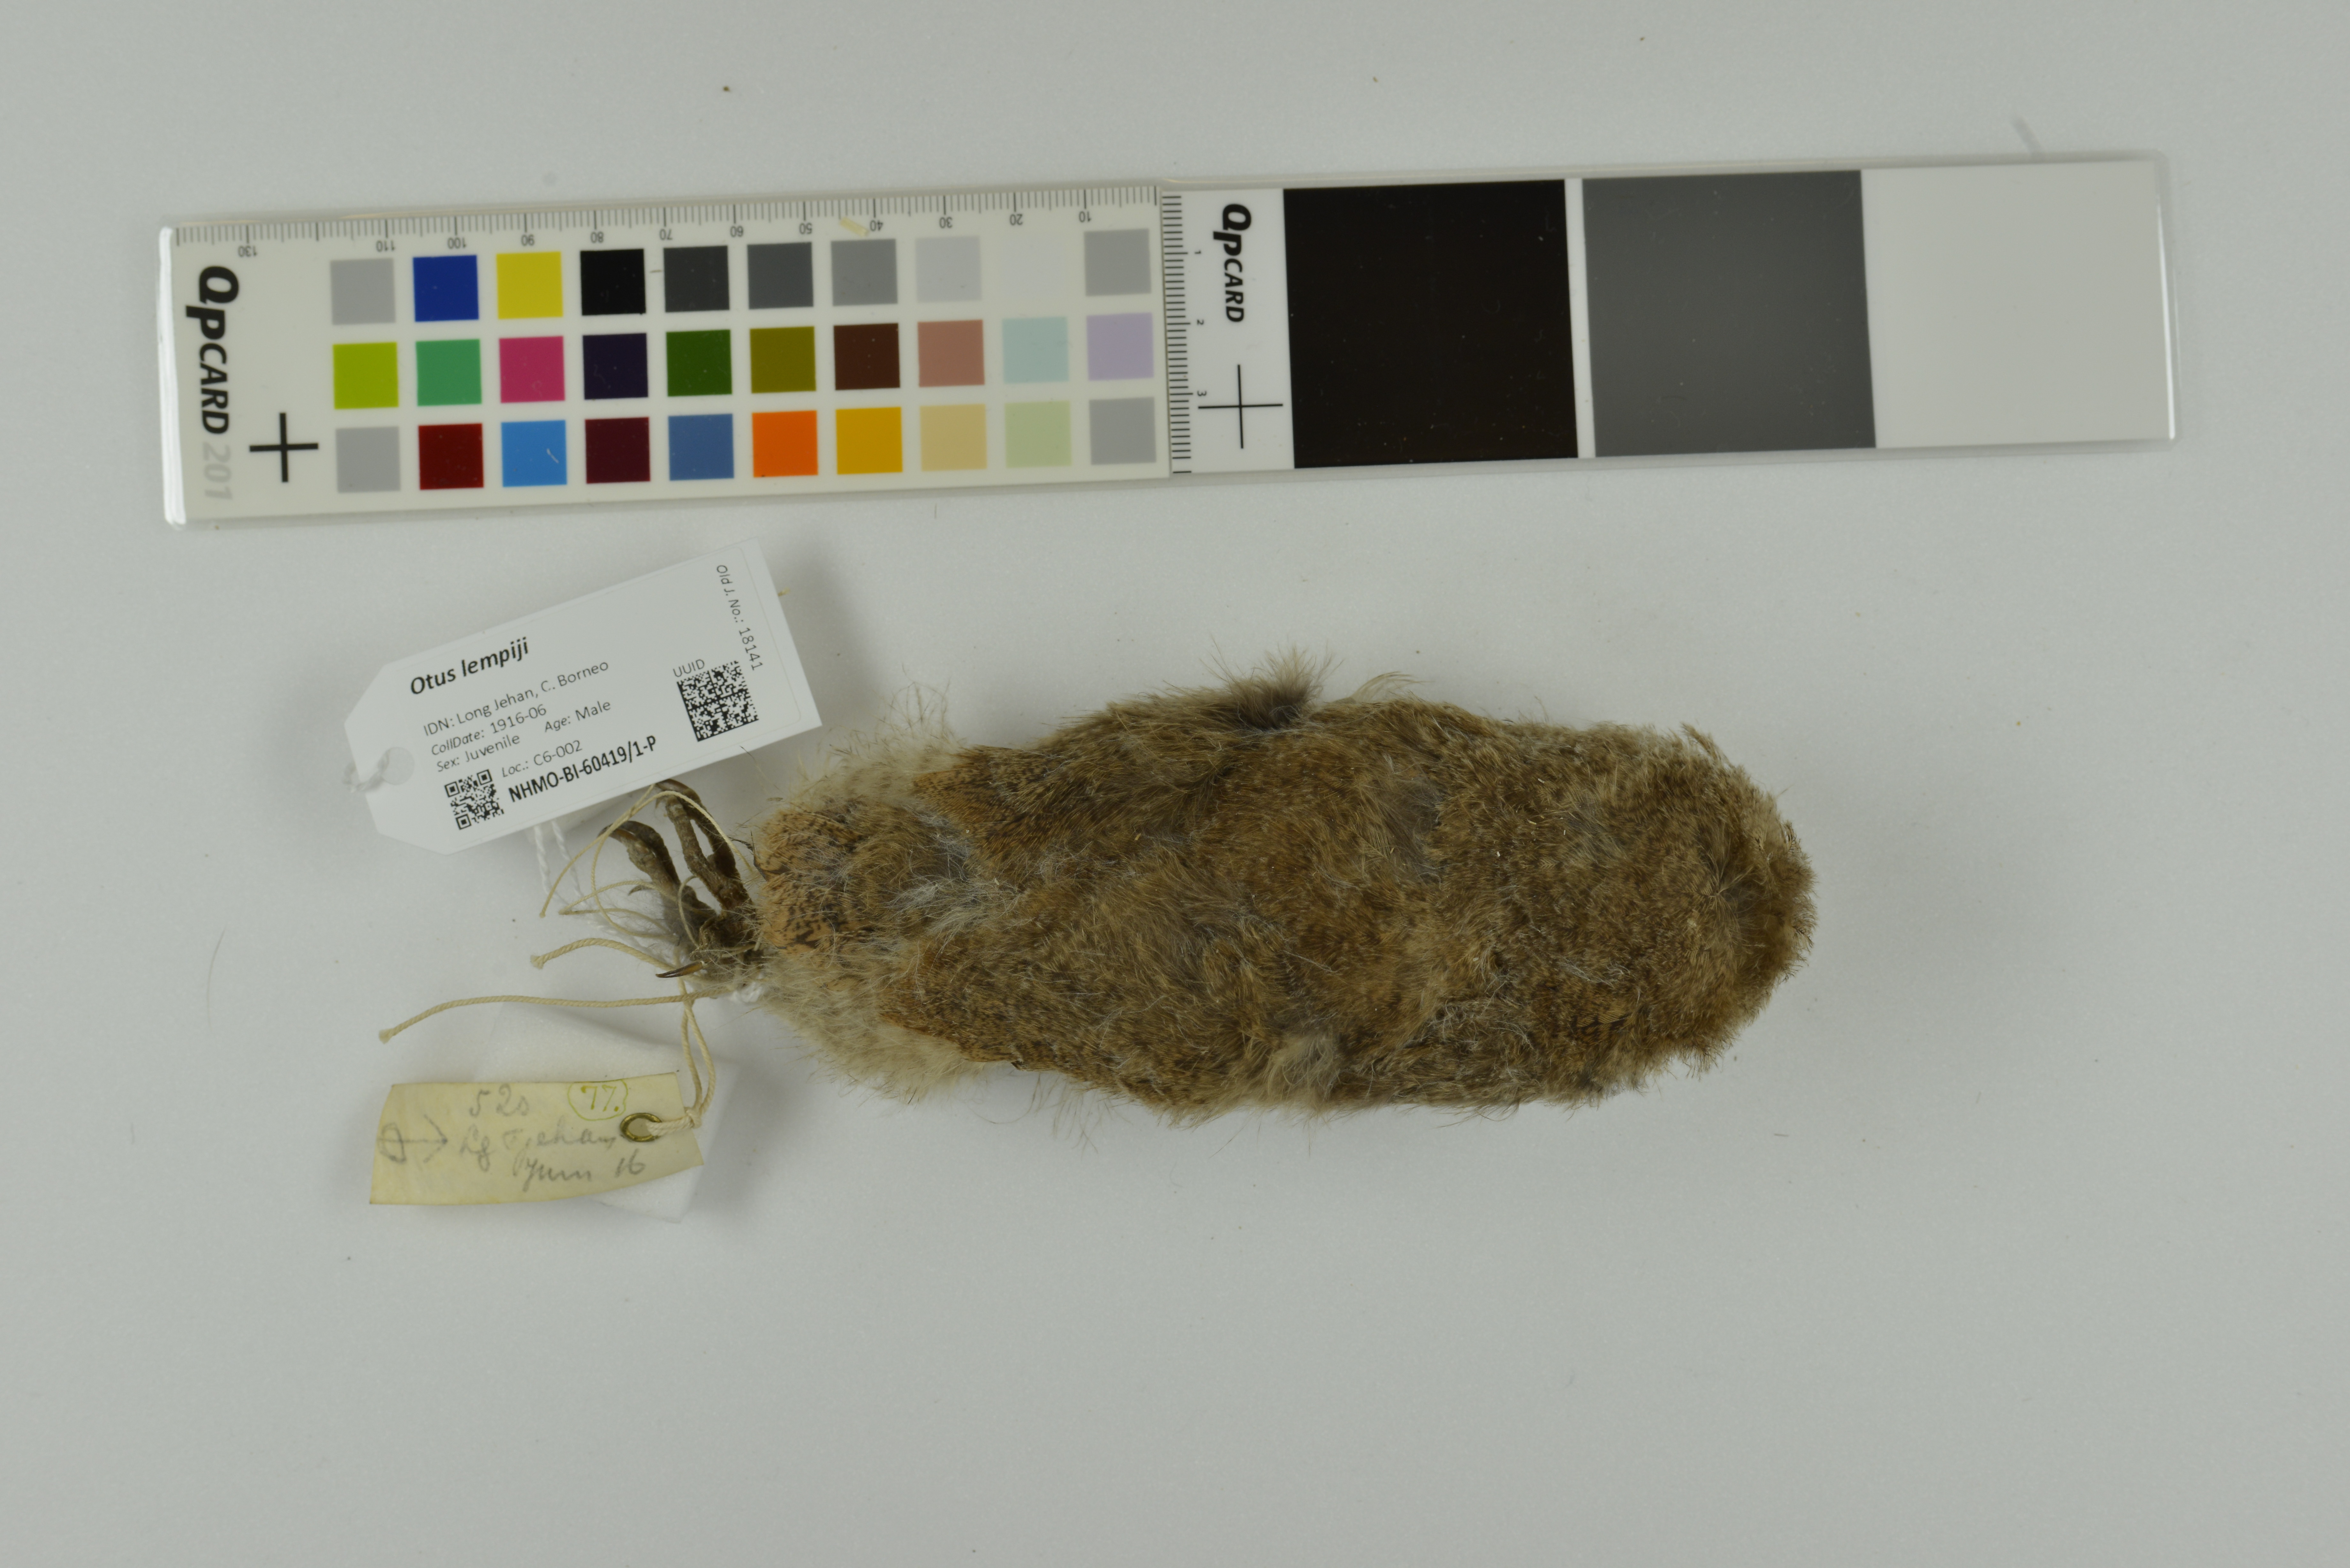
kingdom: Animalia
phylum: Chordata
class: Aves
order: Strigiformes
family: Strigidae
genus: Otus
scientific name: Otus lempiji
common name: Sunda scops-owl
